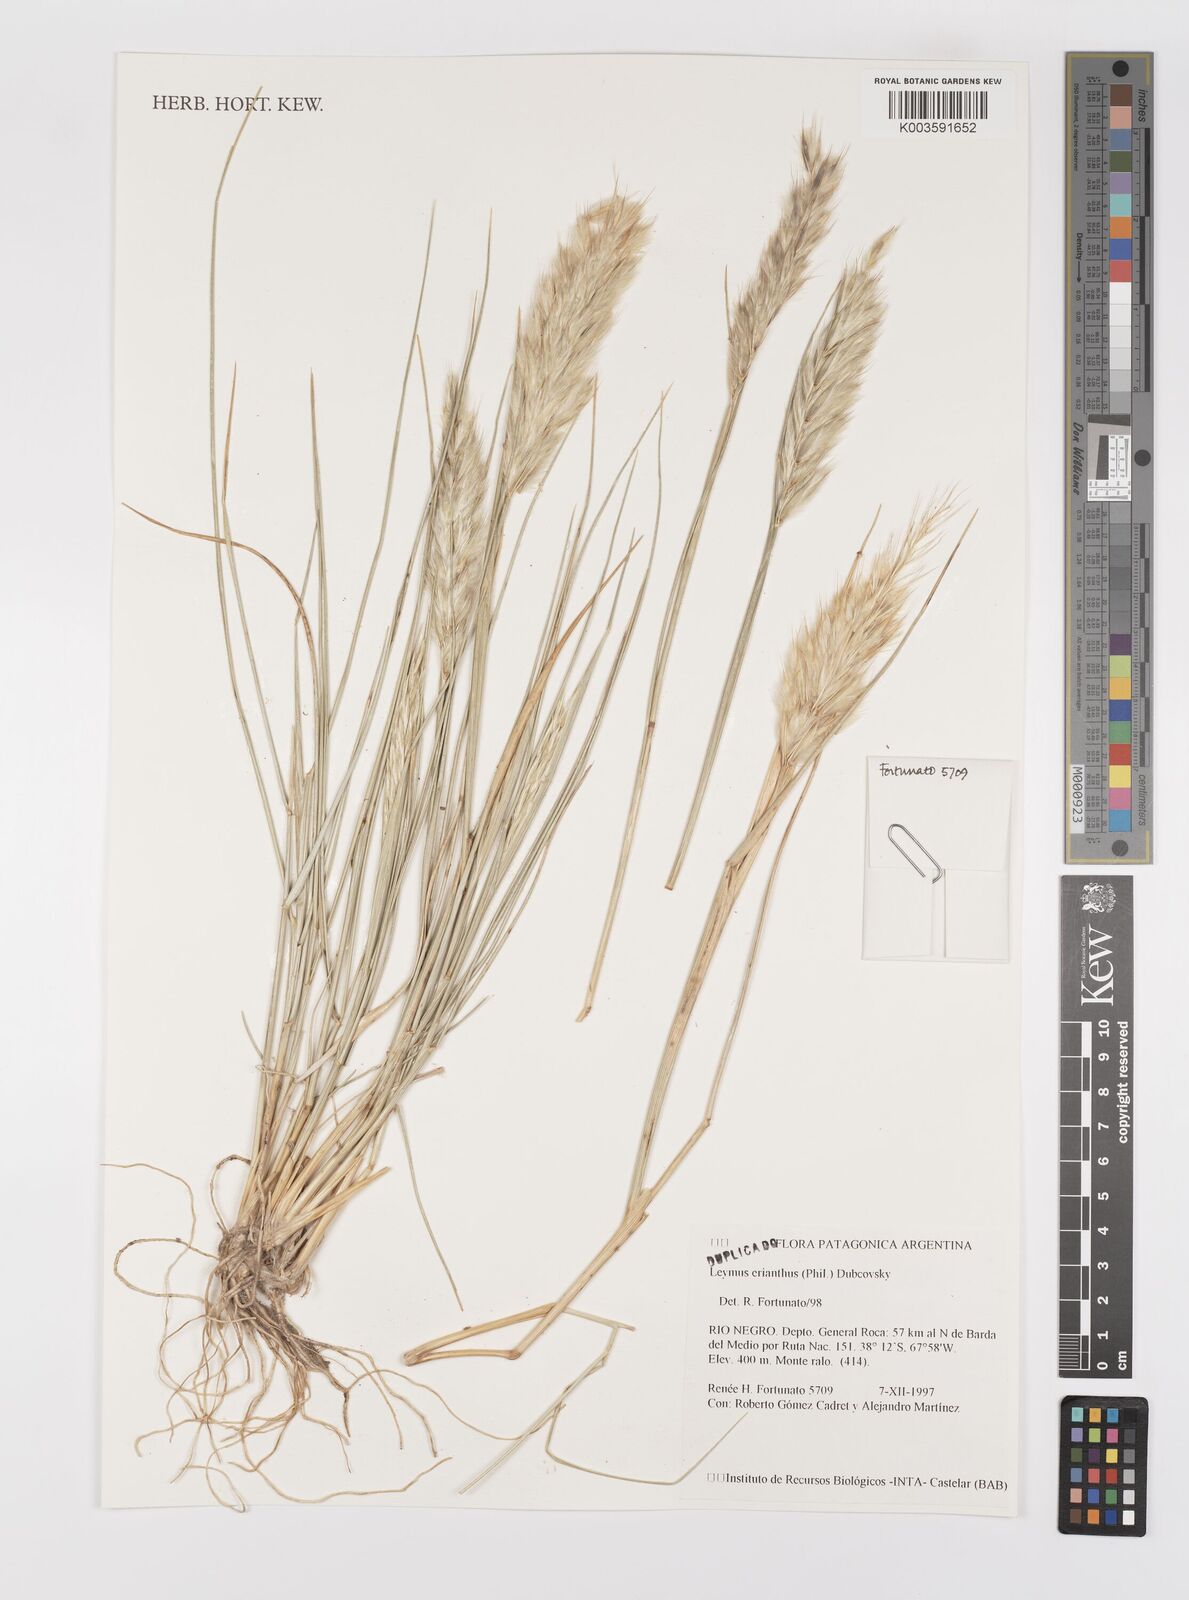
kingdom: Plantae
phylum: Tracheophyta
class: Liliopsida
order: Poales
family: Poaceae
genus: Leymus
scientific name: Leymus erianthus
